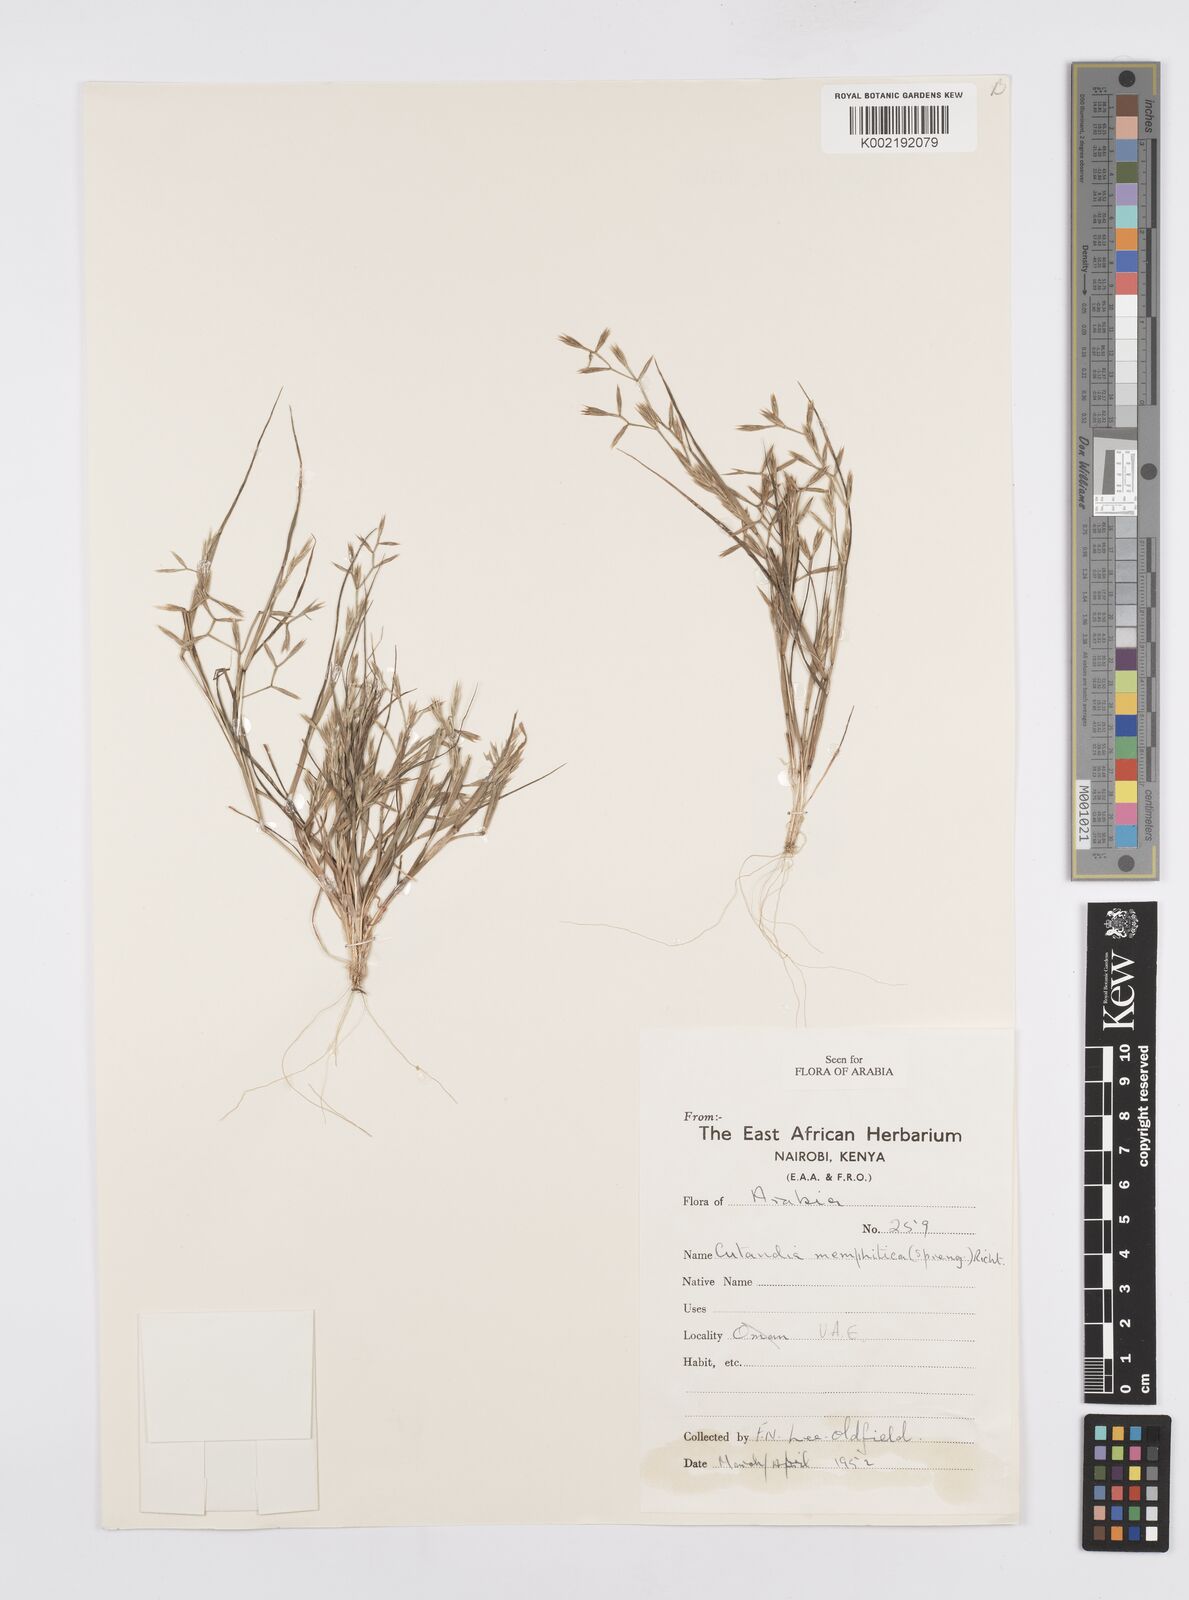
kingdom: Plantae
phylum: Tracheophyta
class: Liliopsida
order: Poales
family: Poaceae
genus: Cutandia
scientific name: Cutandia memphitica
